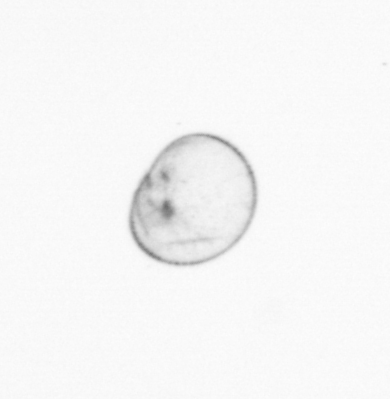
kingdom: Chromista
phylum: Myzozoa
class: Dinophyceae
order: Noctilucales
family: Noctilucaceae
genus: Noctiluca
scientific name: Noctiluca scintillans
